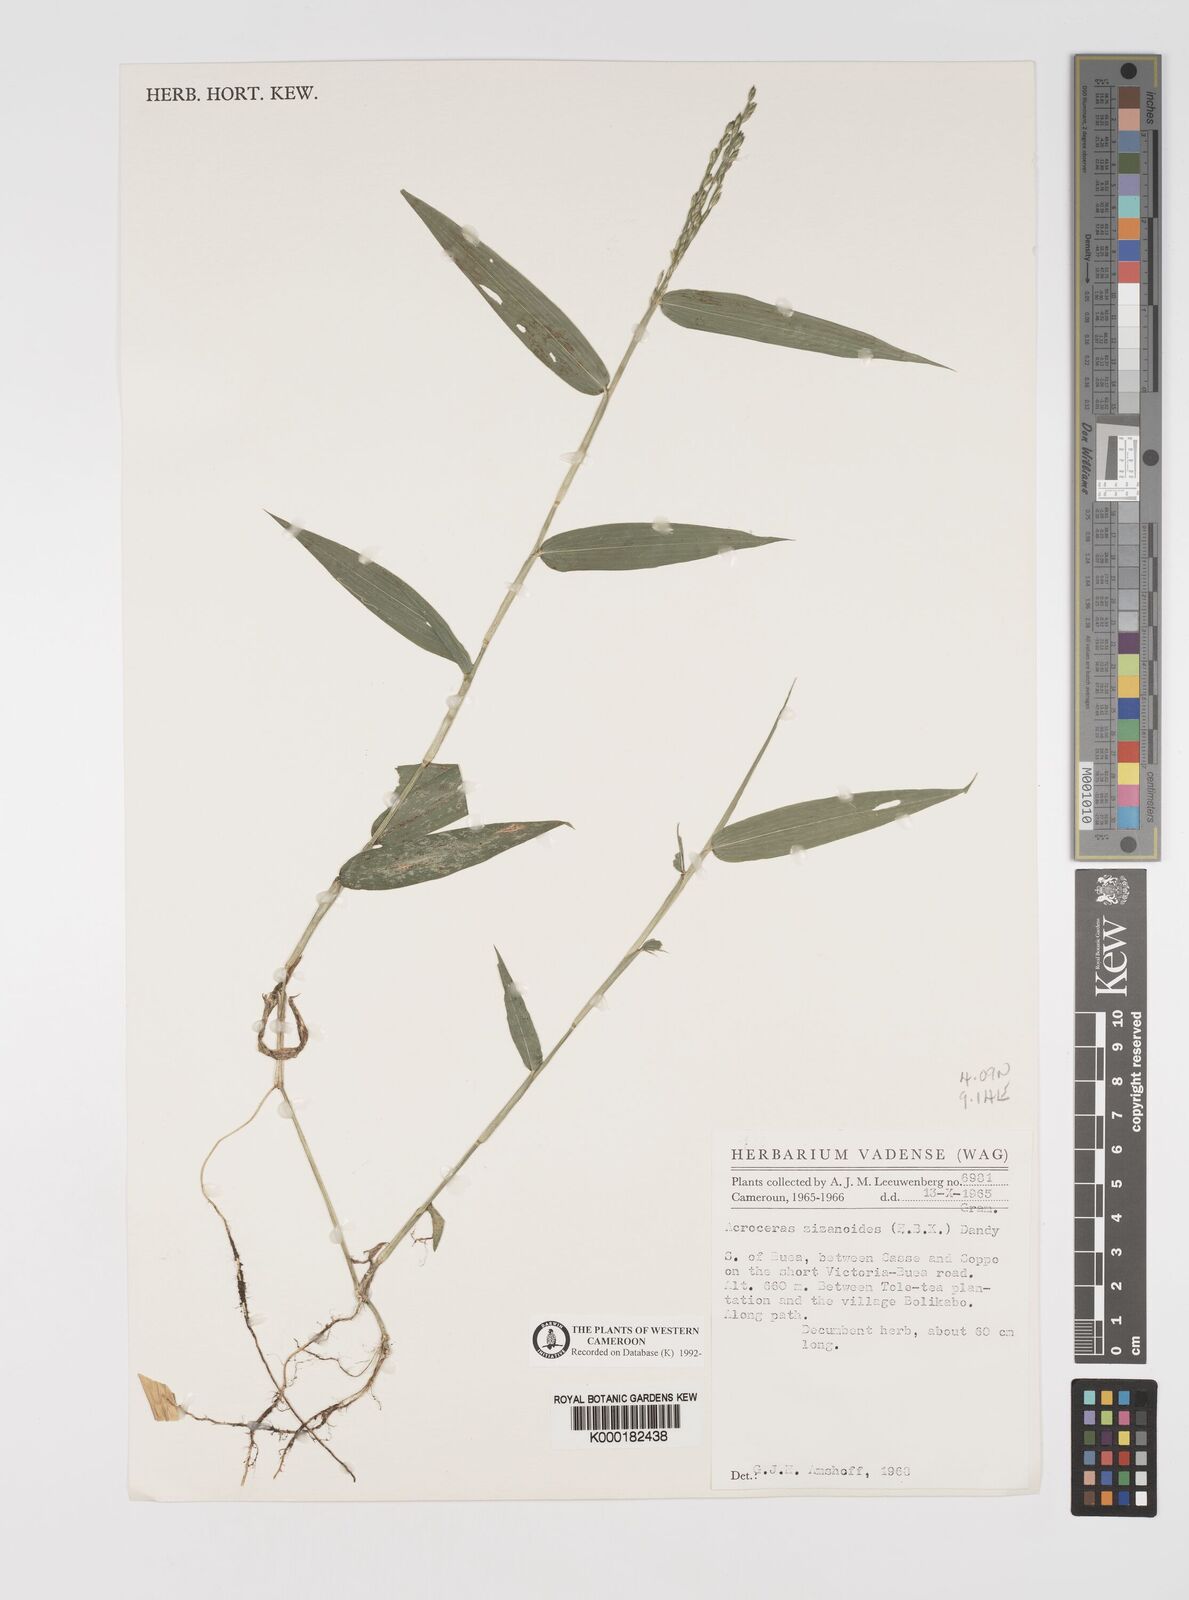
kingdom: Plantae
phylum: Tracheophyta
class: Liliopsida
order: Poales
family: Poaceae
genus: Acroceras
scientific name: Acroceras zizanioides
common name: Oat grass
